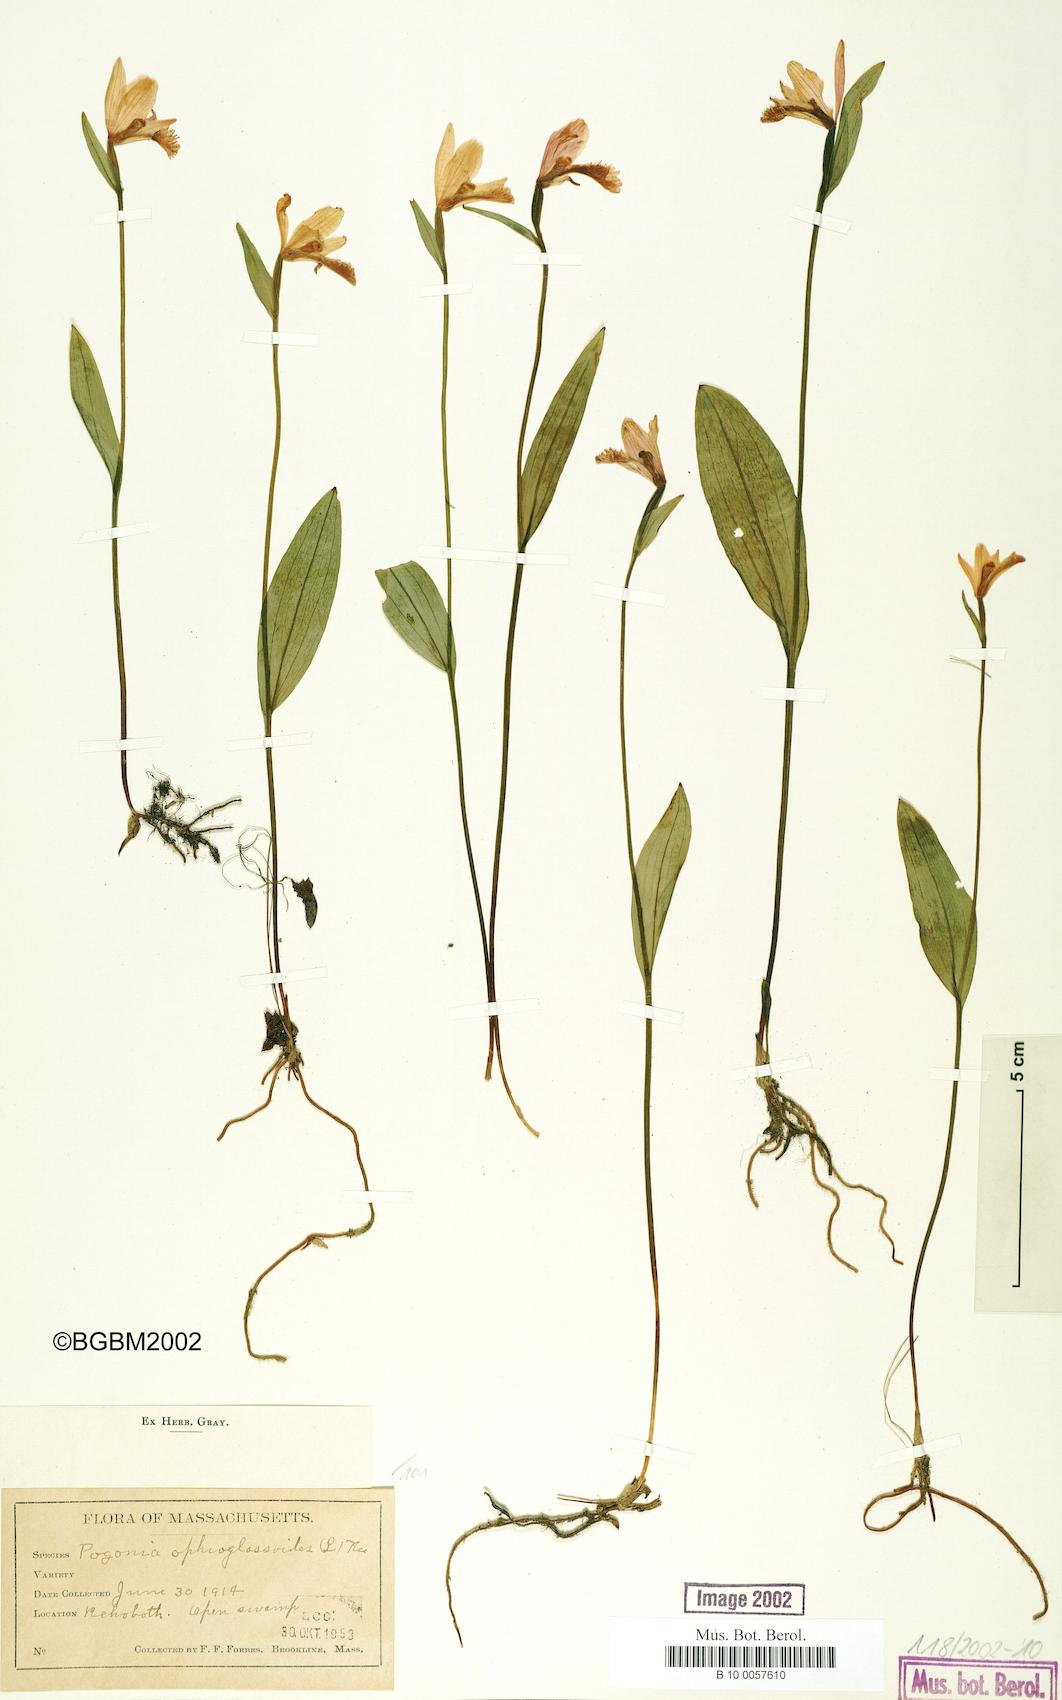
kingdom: Plantae
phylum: Tracheophyta
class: Liliopsida
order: Asparagales
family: Orchidaceae
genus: Pogonia
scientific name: Pogonia ophioglossoides
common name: Rose pogonia
